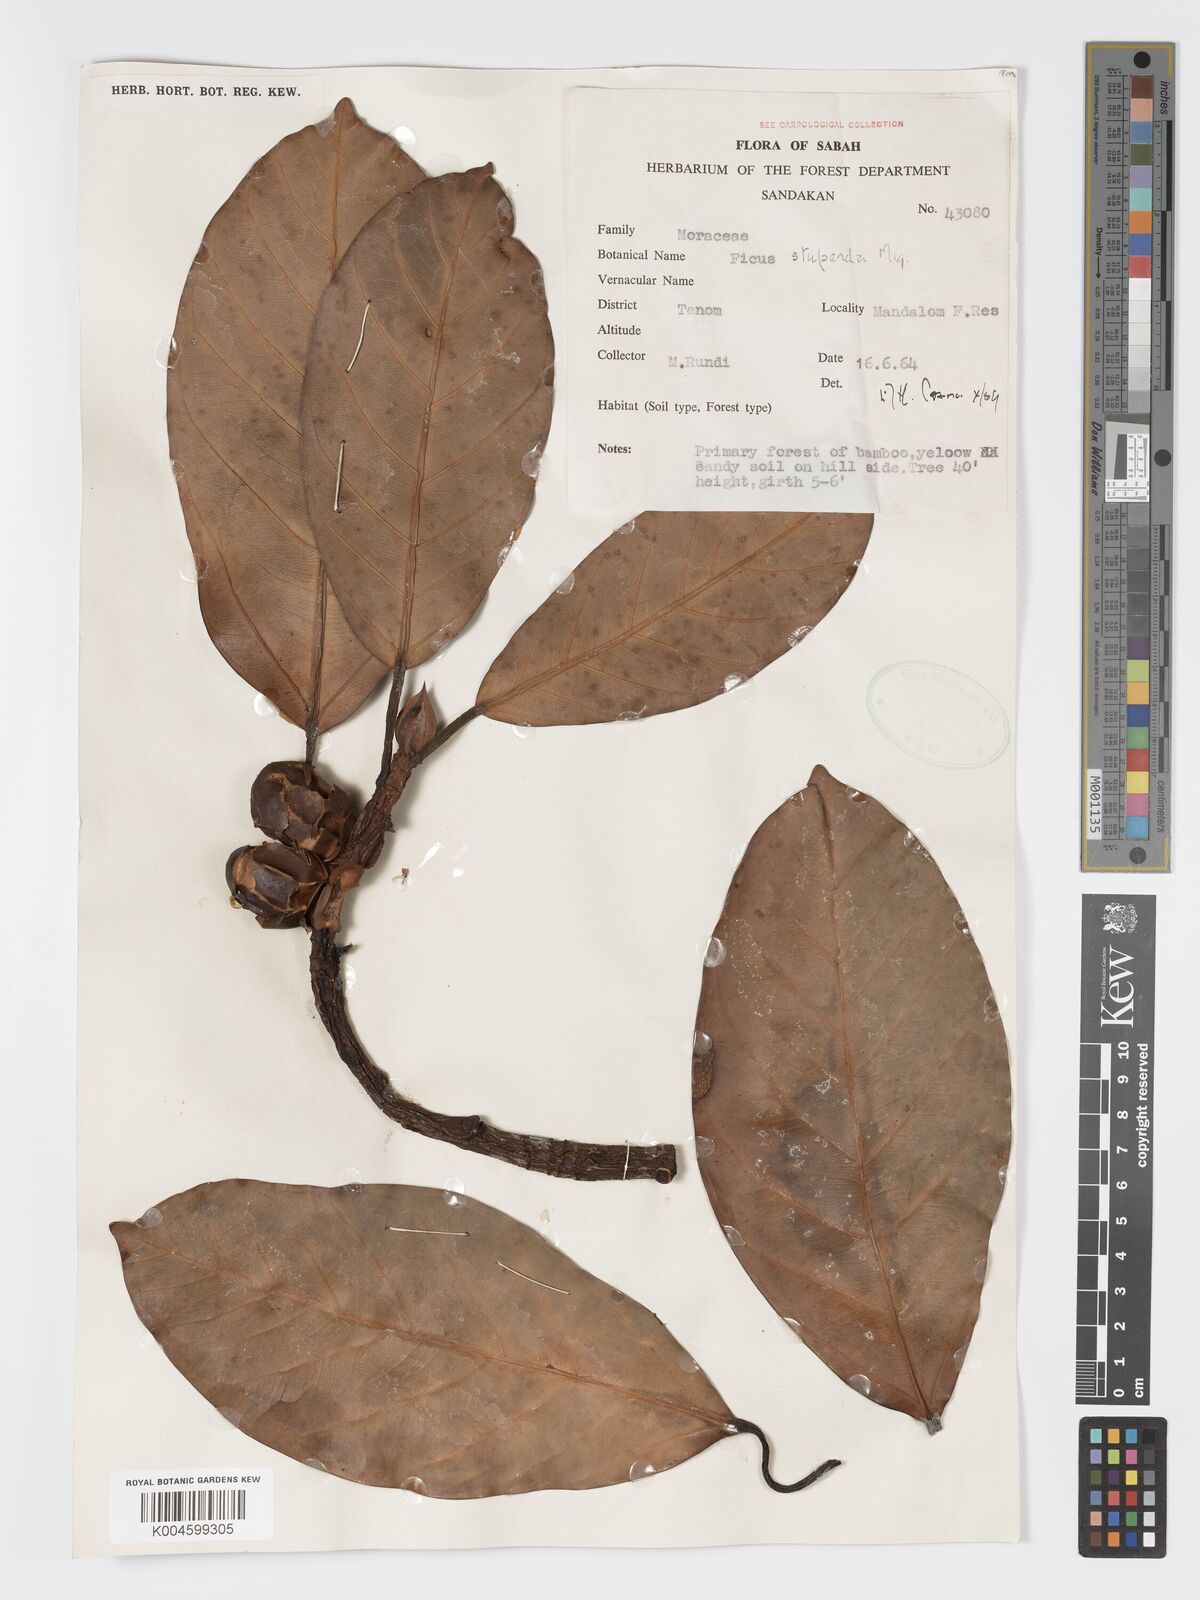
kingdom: Plantae
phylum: Tracheophyta
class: Magnoliopsida
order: Rosales
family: Moraceae
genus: Ficus
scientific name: Ficus crassiramea
